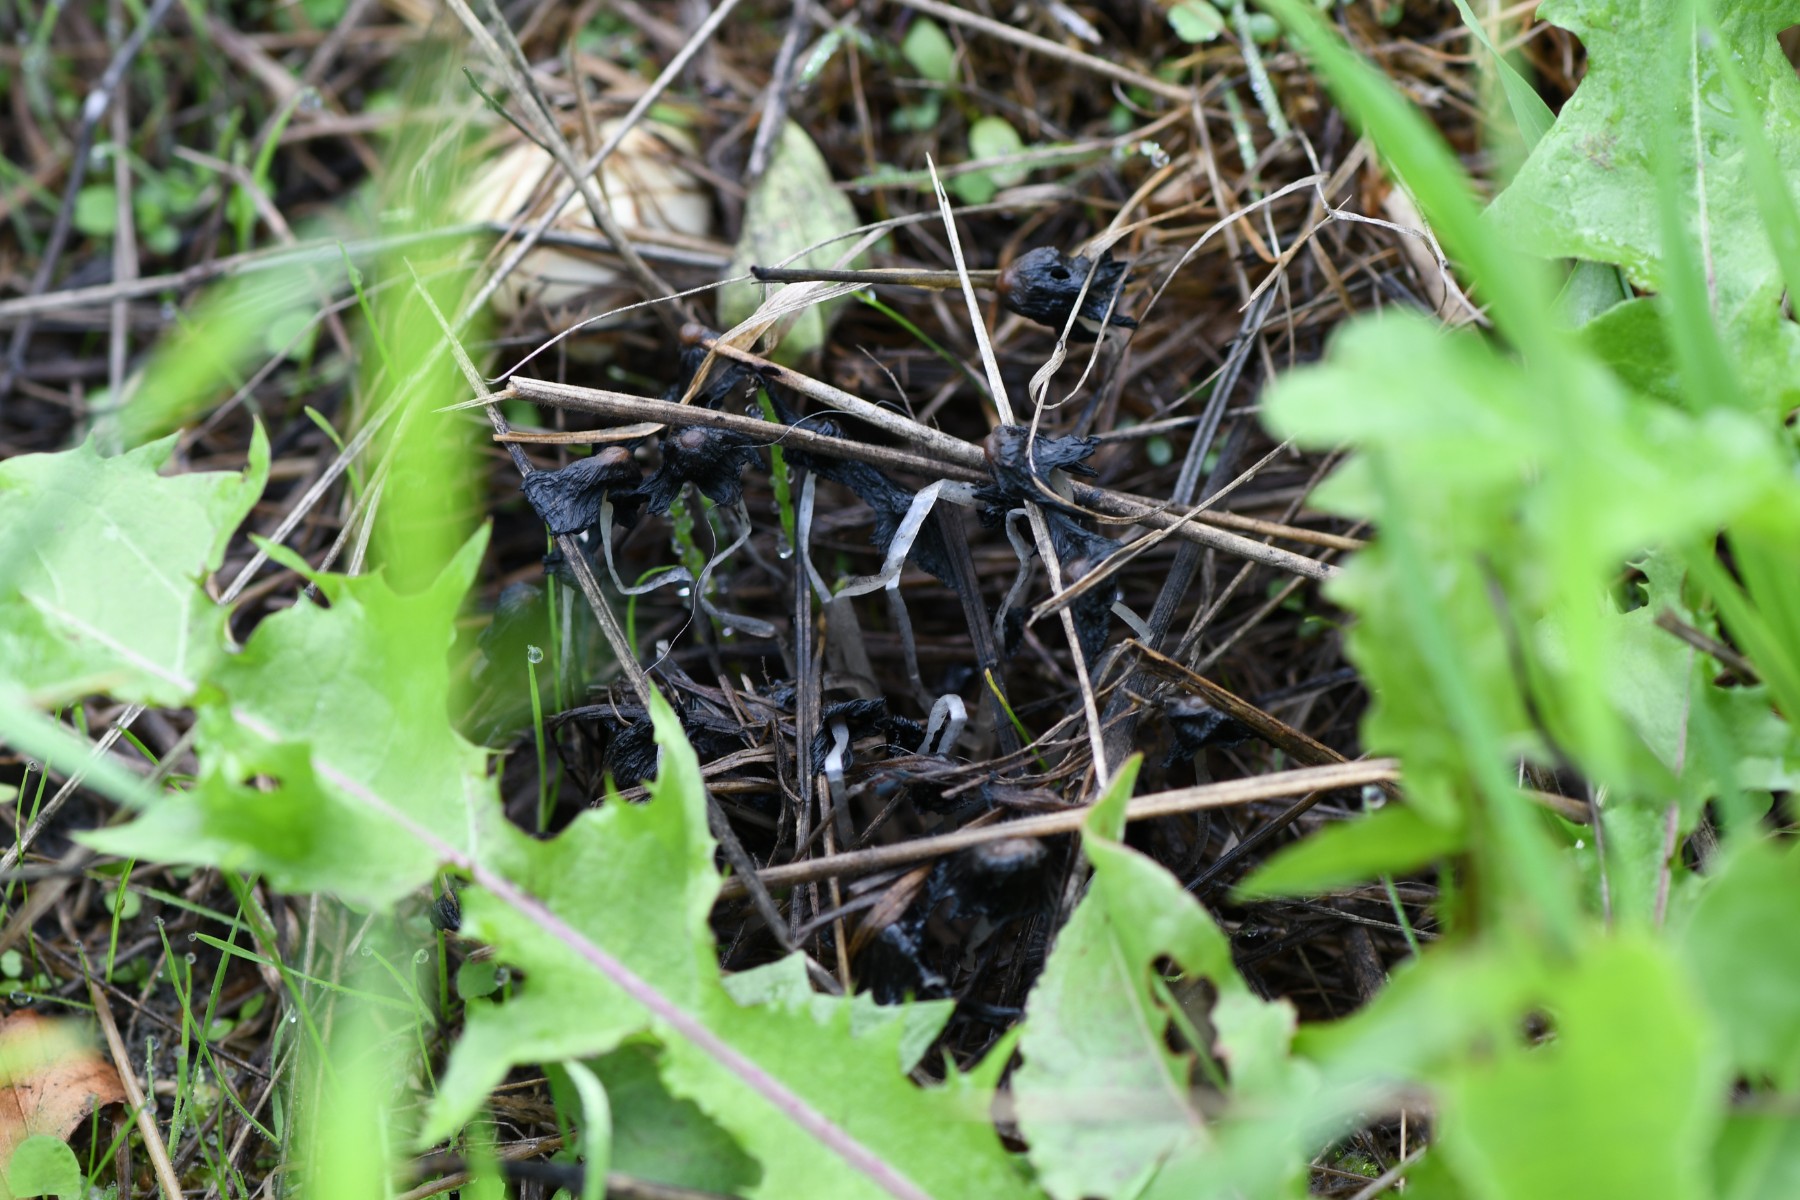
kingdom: Fungi
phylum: Basidiomycota
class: Agaricomycetes
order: Agaricales
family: Psathyrellaceae
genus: Coprinellus
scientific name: Coprinellus
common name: blækhat
